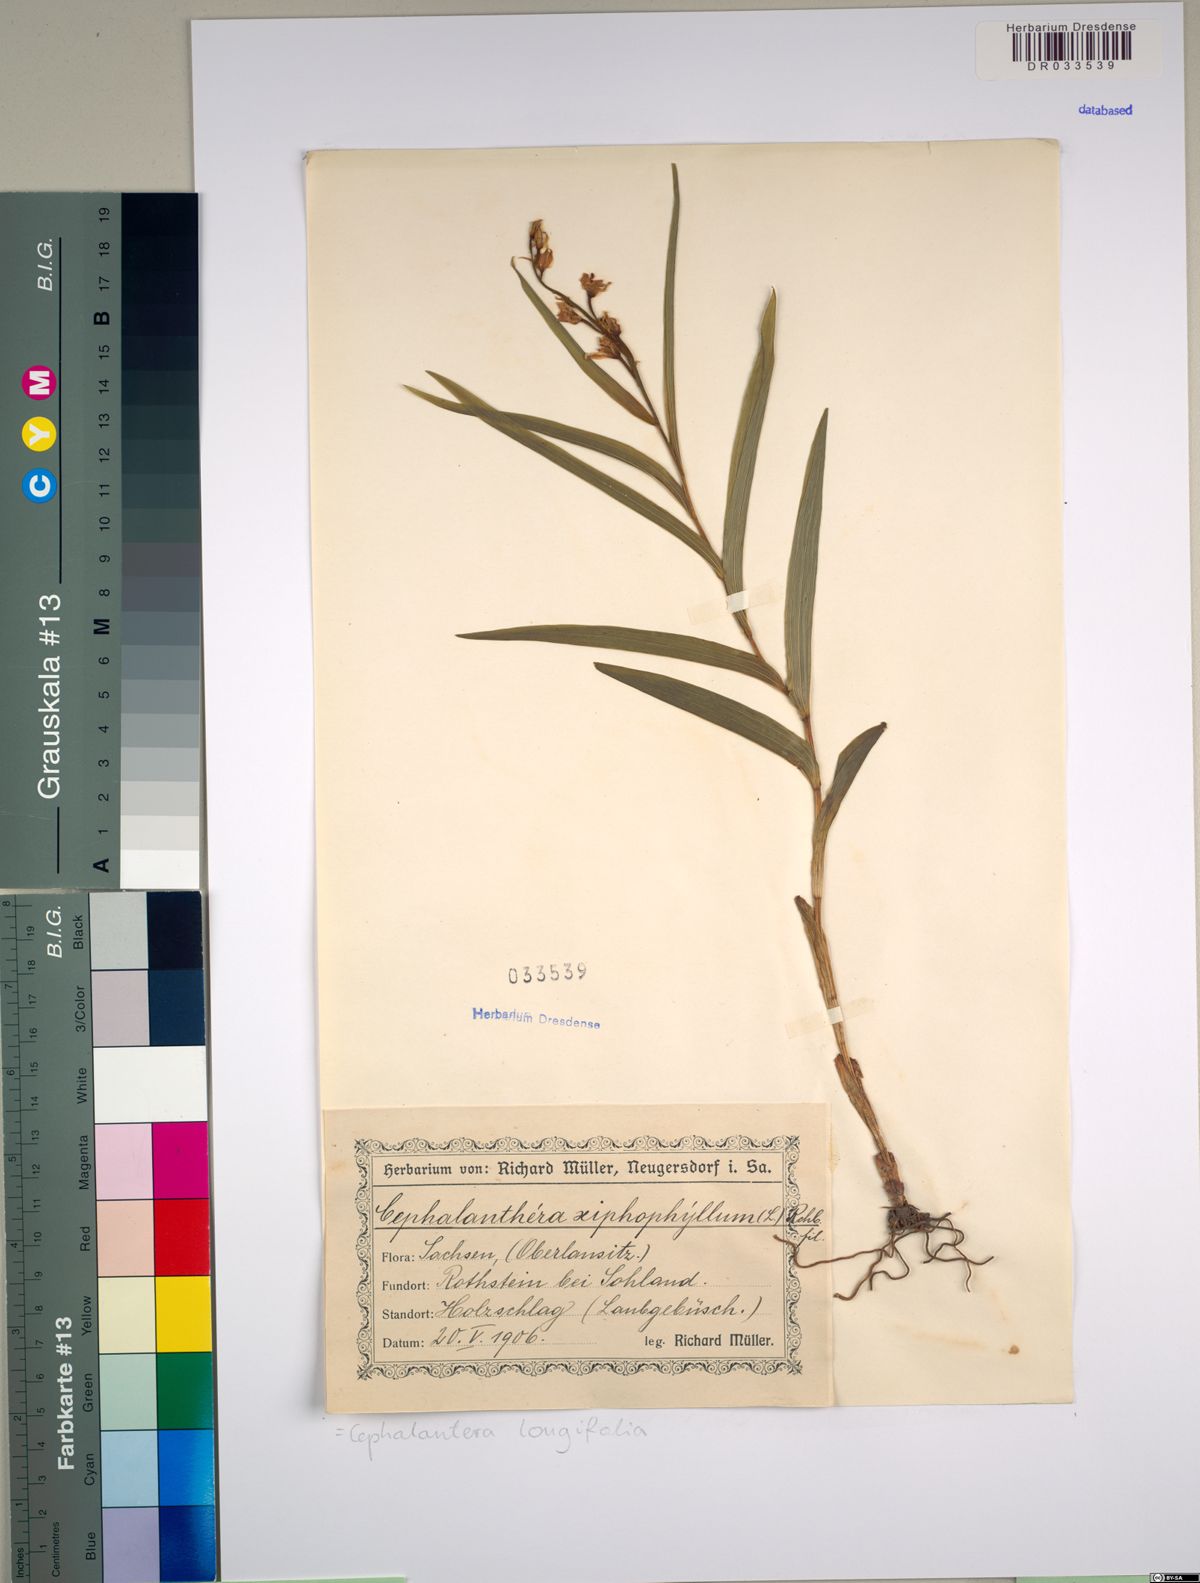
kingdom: Plantae
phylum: Tracheophyta
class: Liliopsida
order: Asparagales
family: Orchidaceae
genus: Cephalanthera
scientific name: Cephalanthera longifolia
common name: Narrow-leaved helleborine
